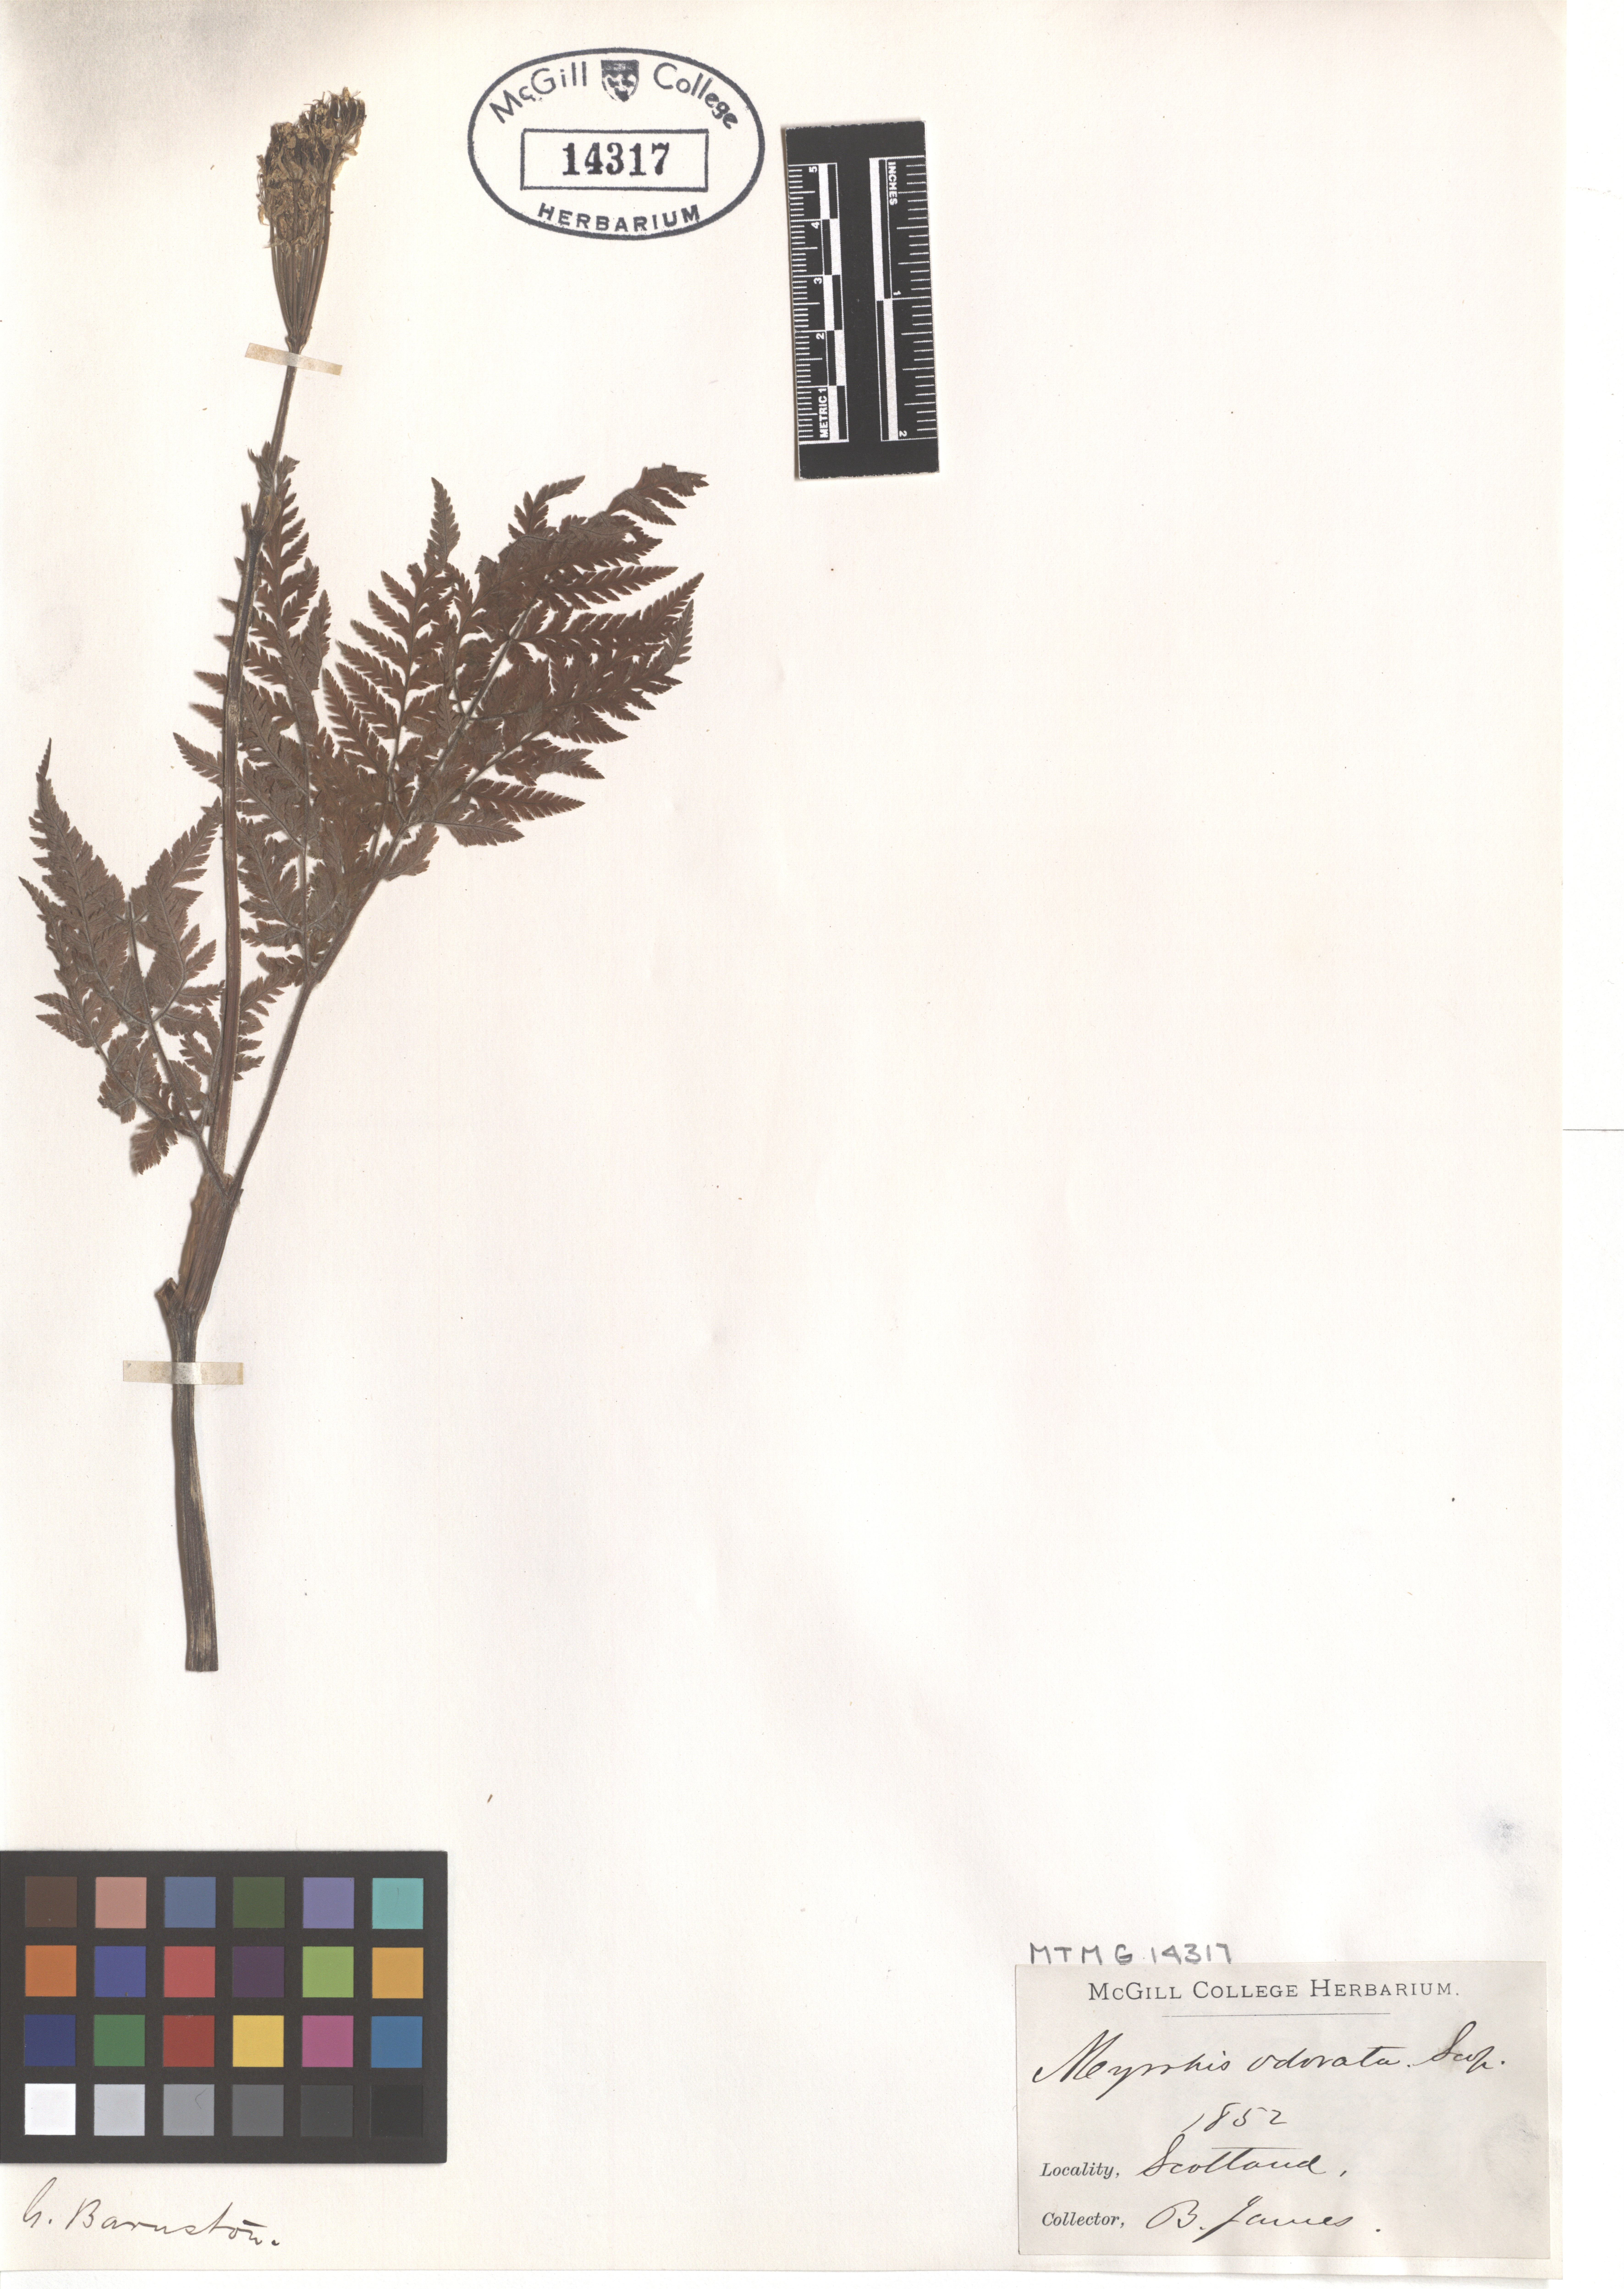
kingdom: Plantae
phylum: Tracheophyta
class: Magnoliopsida
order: Apiales
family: Apiaceae
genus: Myrrhis
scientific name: Myrrhis odorata
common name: Sweet cicely
